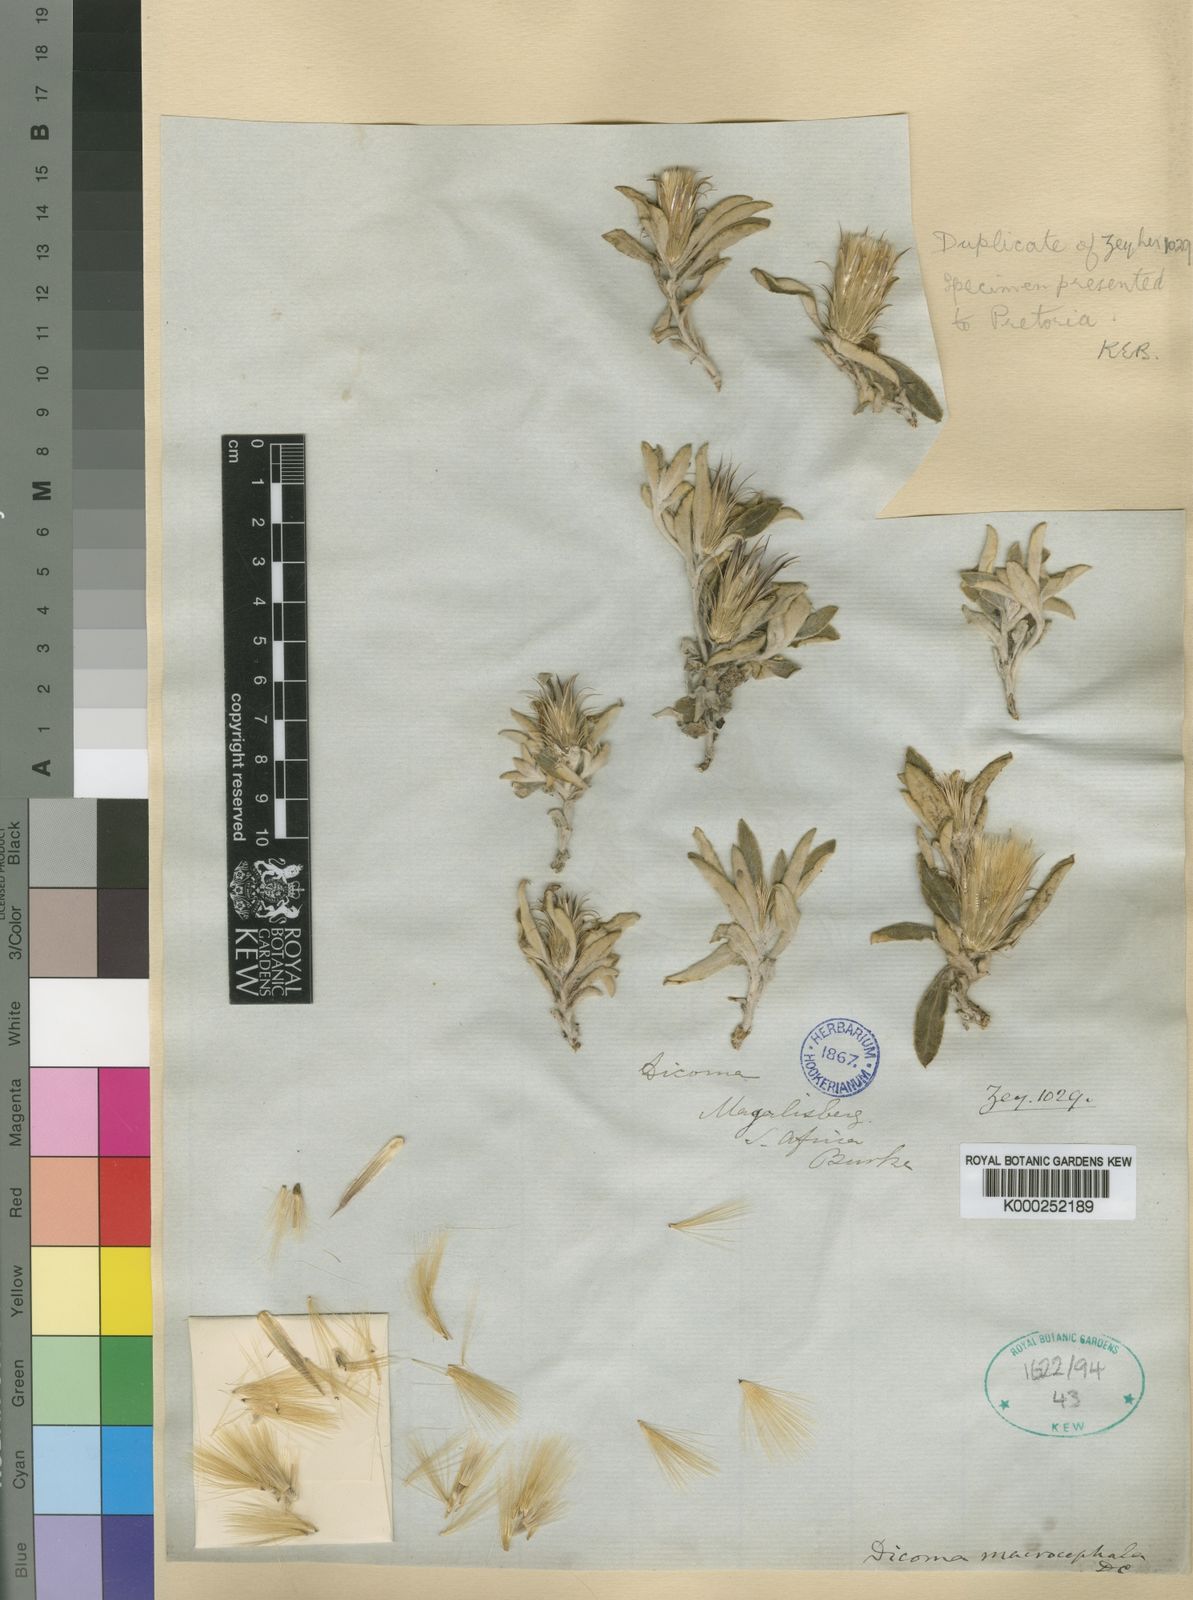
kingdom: Plantae
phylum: Tracheophyta
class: Magnoliopsida
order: Asterales
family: Asteraceae
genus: Dicoma
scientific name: Dicoma macrocephala
